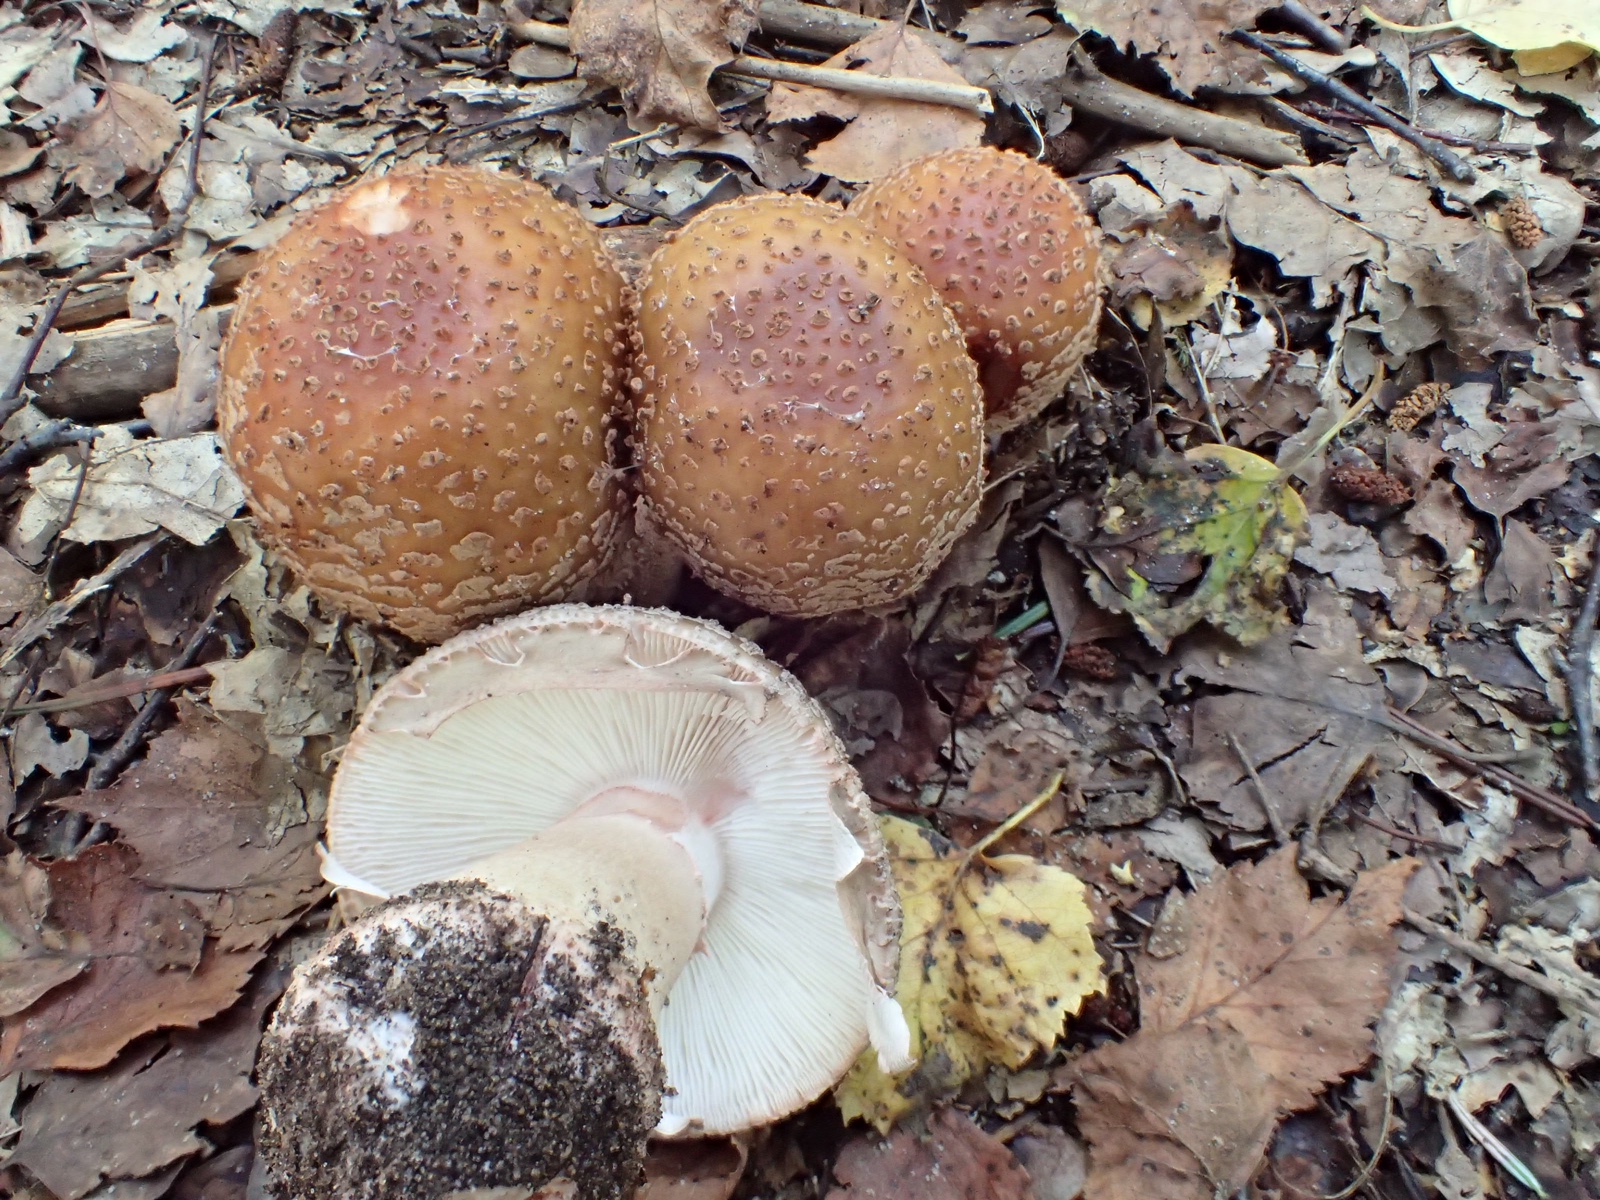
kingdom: Fungi
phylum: Basidiomycota
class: Agaricomycetes
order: Agaricales
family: Amanitaceae
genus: Amanita
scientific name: Amanita rubescens
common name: rødmende fluesvamp
